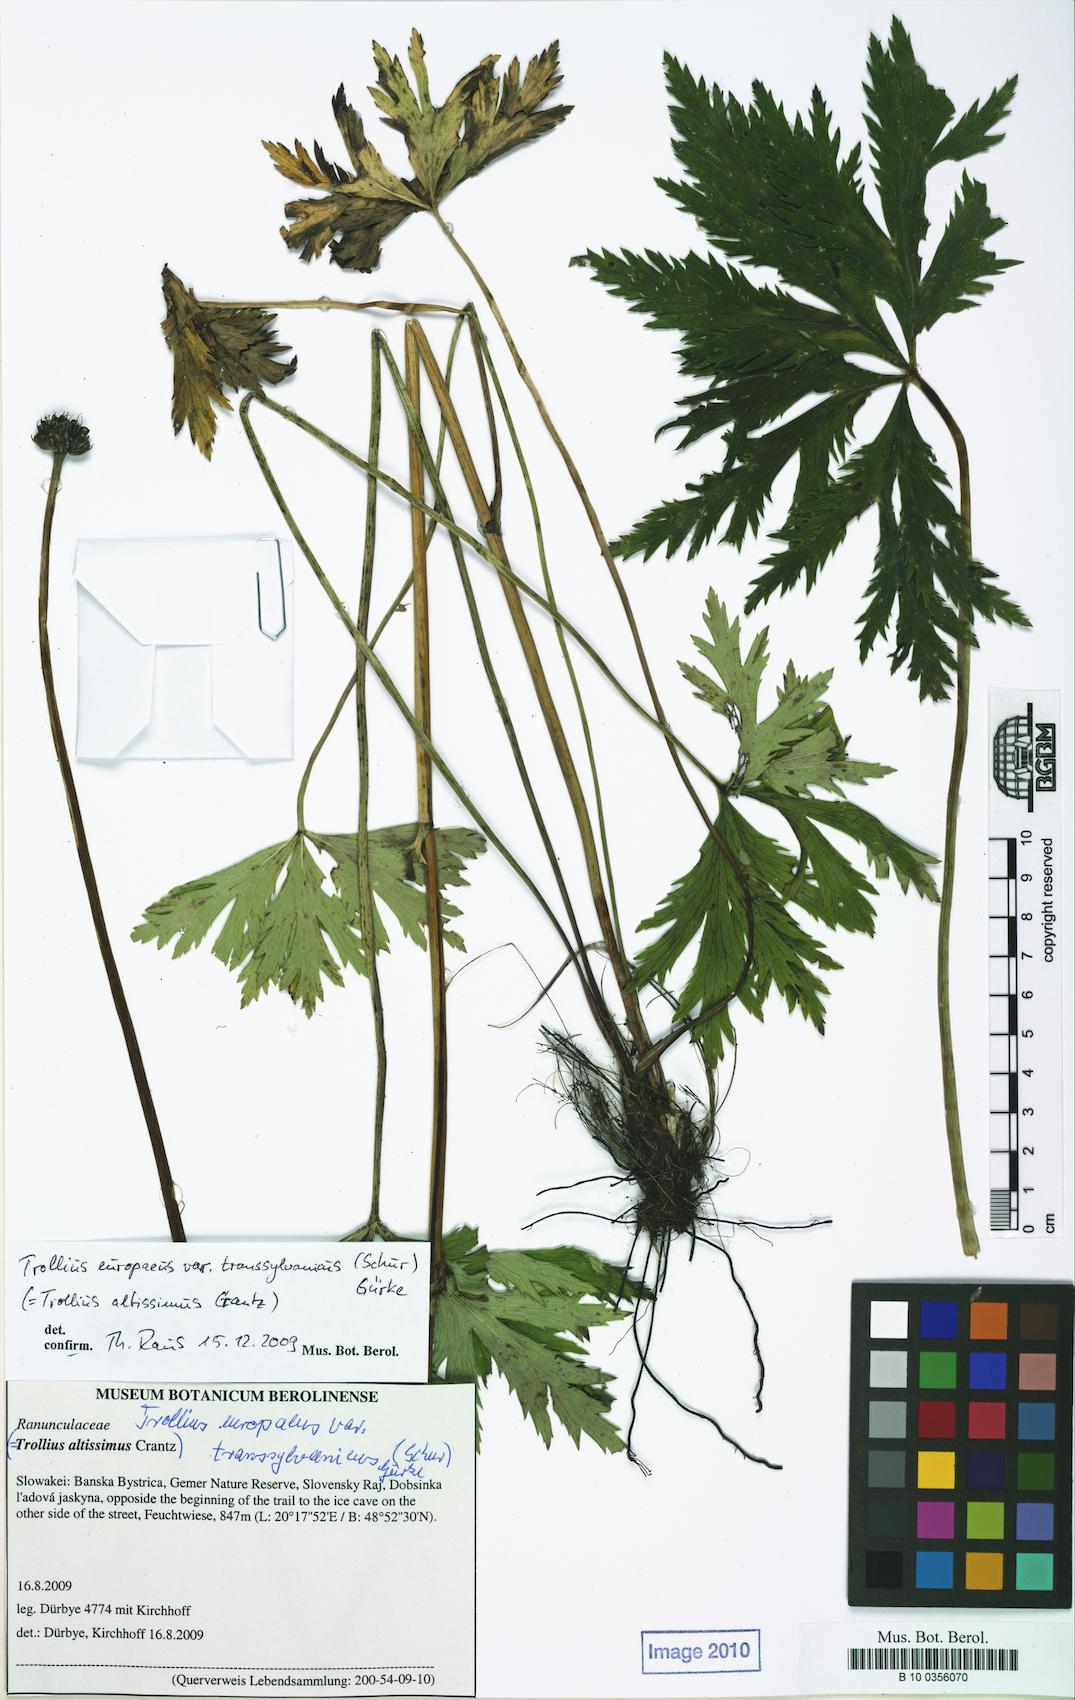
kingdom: Plantae
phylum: Tracheophyta
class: Magnoliopsida
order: Ranunculales
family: Ranunculaceae
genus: Trollius
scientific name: Trollius europaeus
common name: European globeflower
